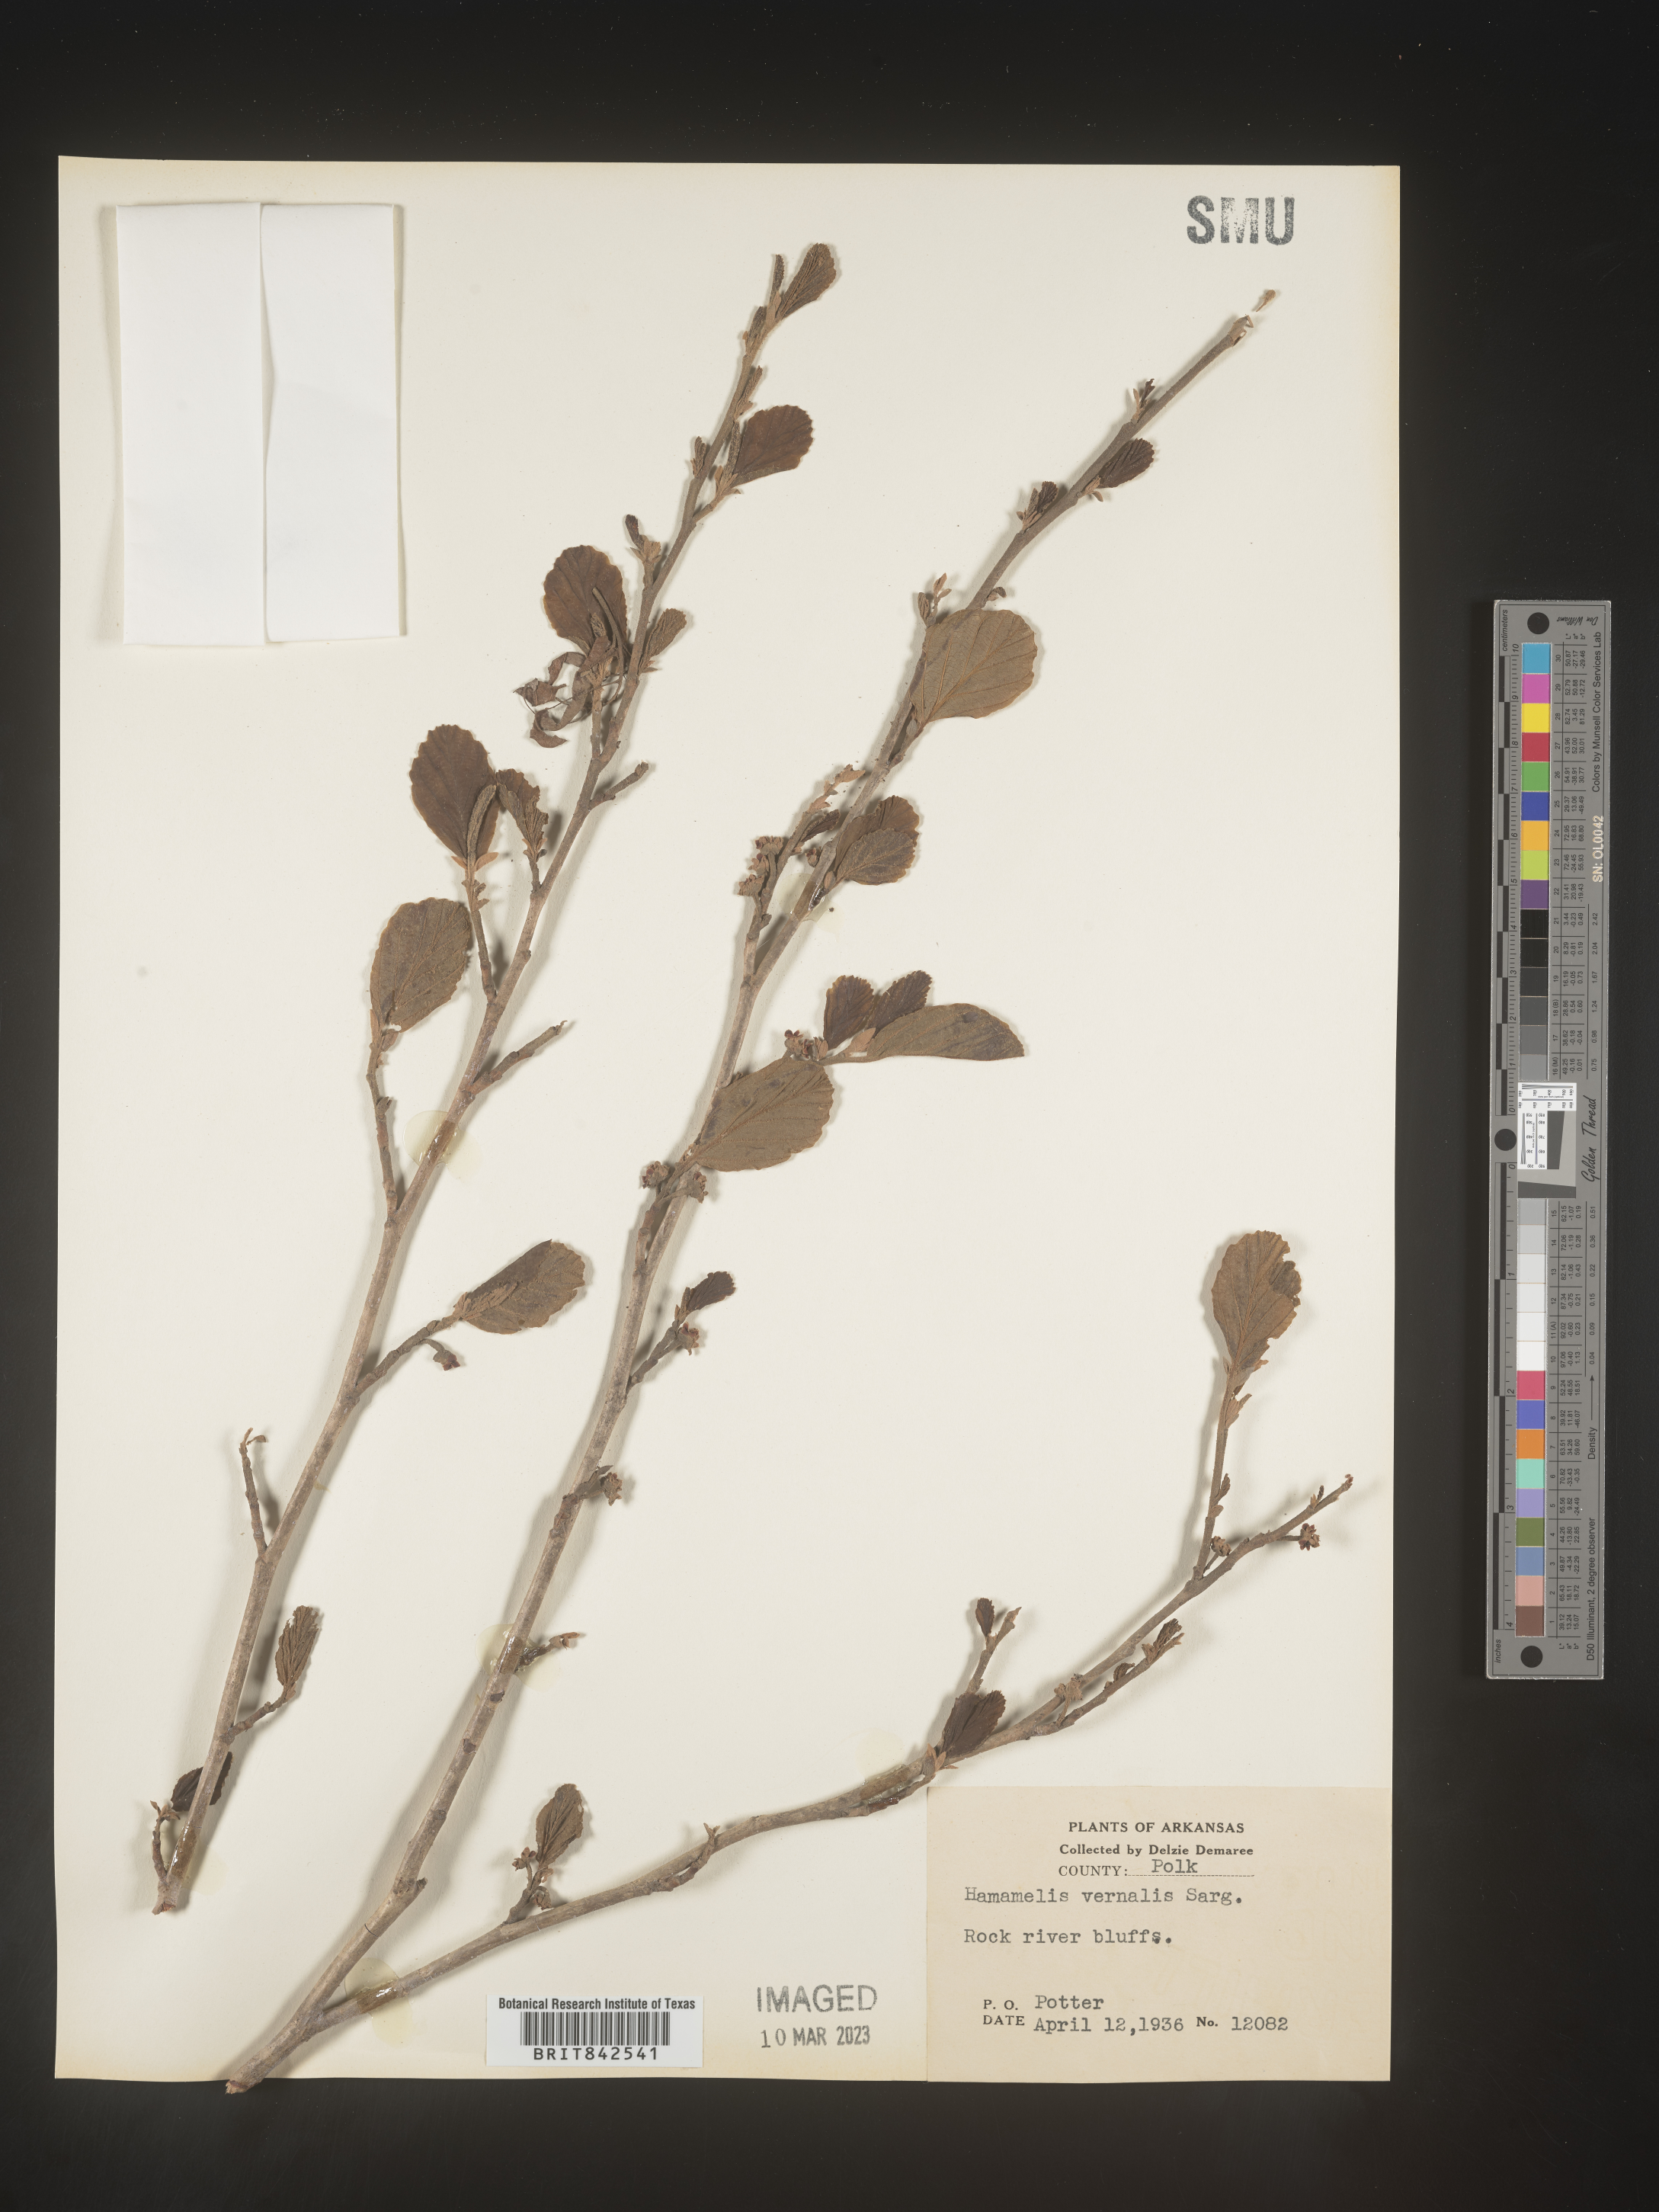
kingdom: Plantae
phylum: Tracheophyta
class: Magnoliopsida
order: Saxifragales
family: Hamamelidaceae
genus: Hamamelis
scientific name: Hamamelis vernalis
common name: Ozark witch-hazel
